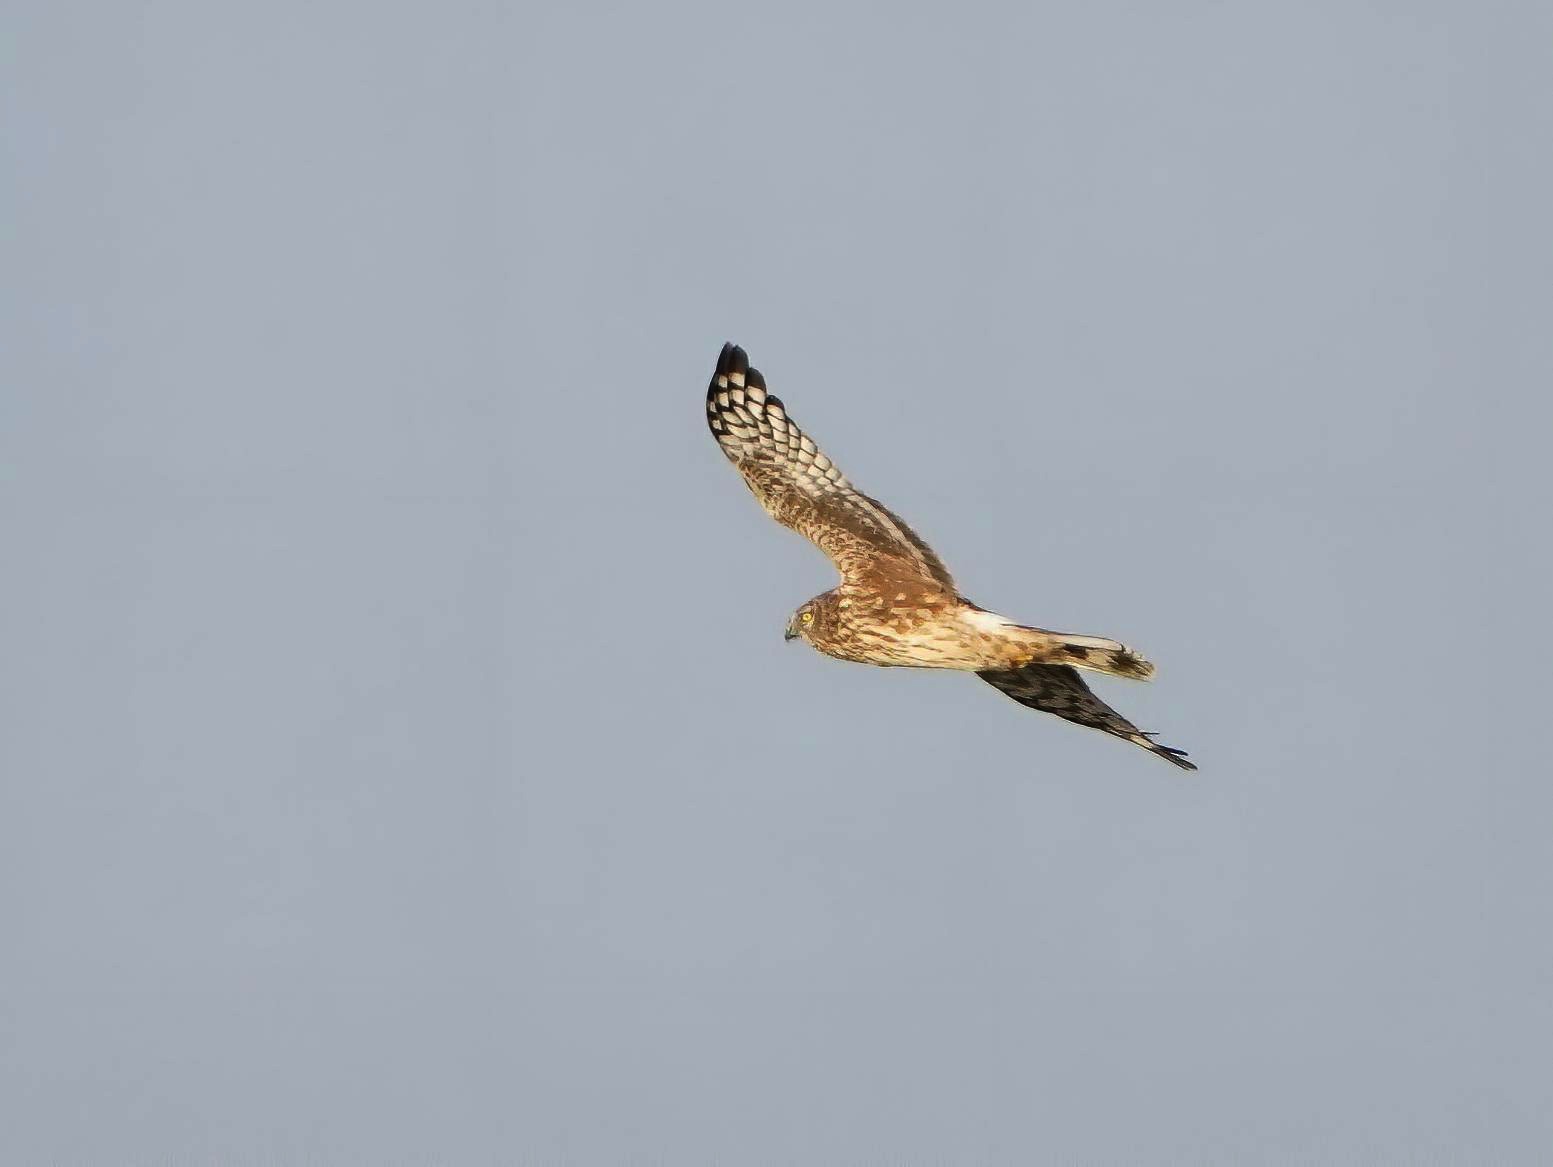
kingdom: Animalia
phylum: Chordata
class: Aves
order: Accipitriformes
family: Accipitridae
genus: Circus
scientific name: Circus cyaneus
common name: Blå kærhøg
